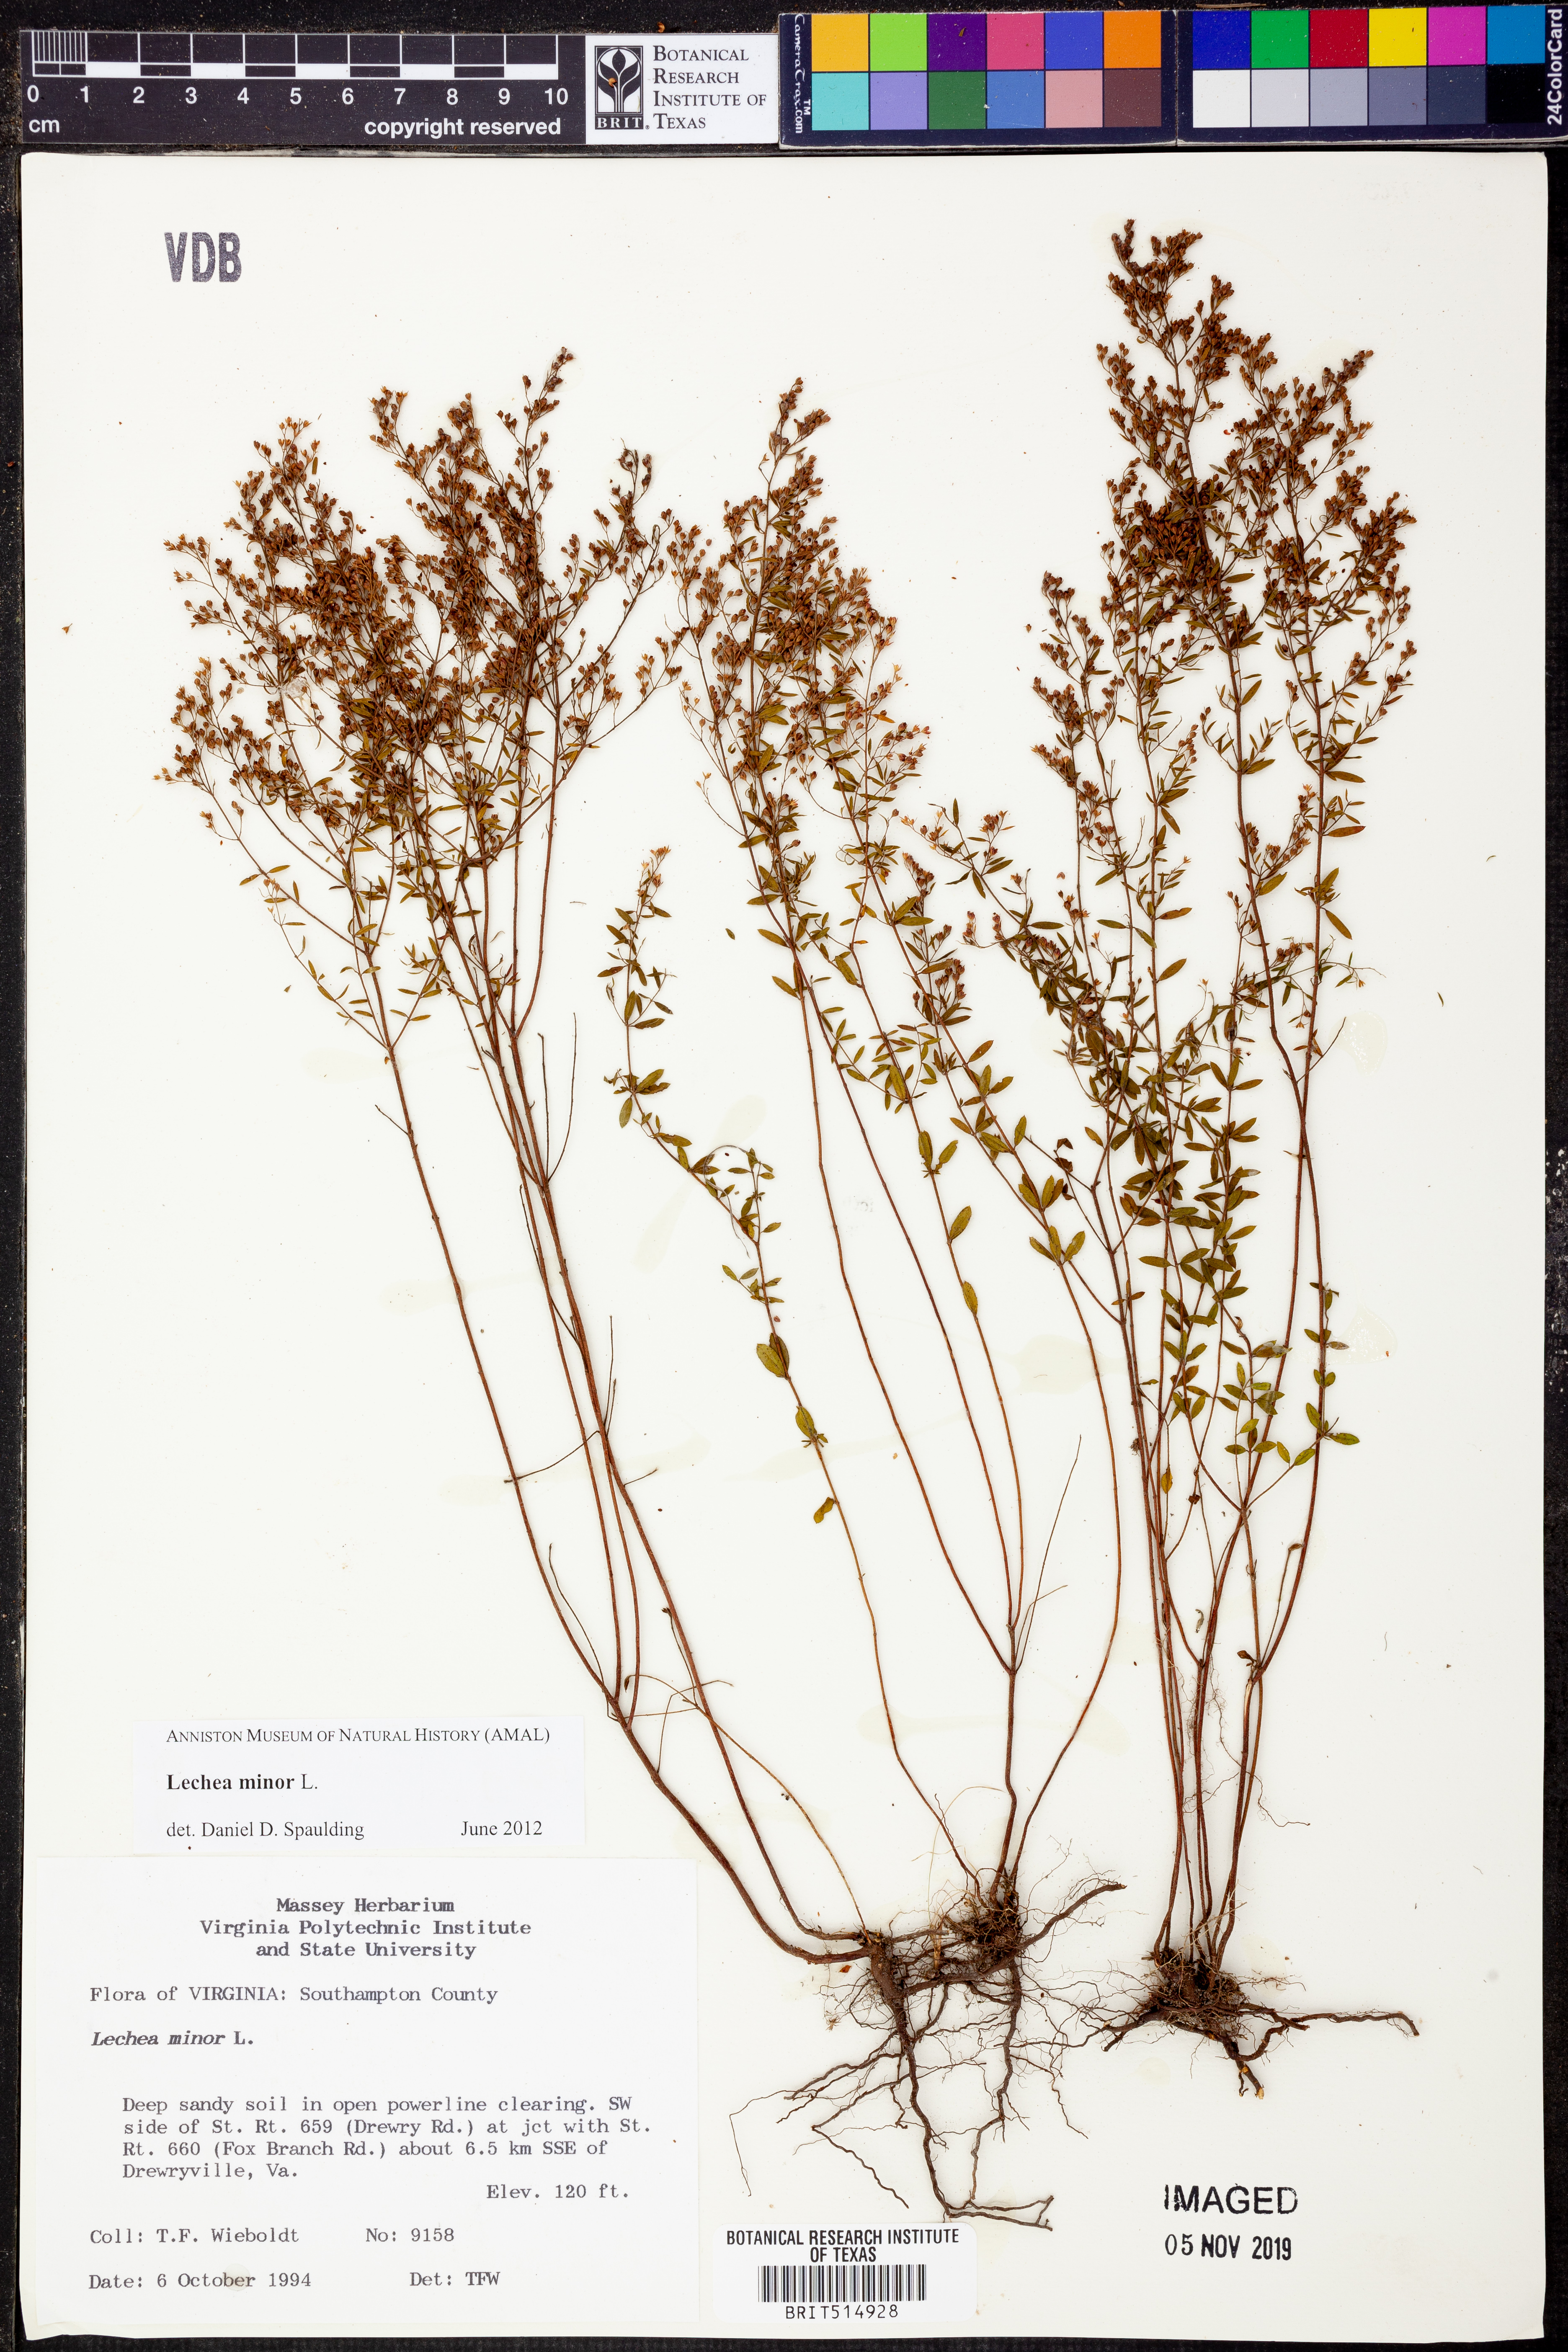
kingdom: Plantae
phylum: Tracheophyta
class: Magnoliopsida
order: Malvales
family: Cistaceae
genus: Lechea
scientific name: Lechea minor
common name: Thyme-leaf pinweed
